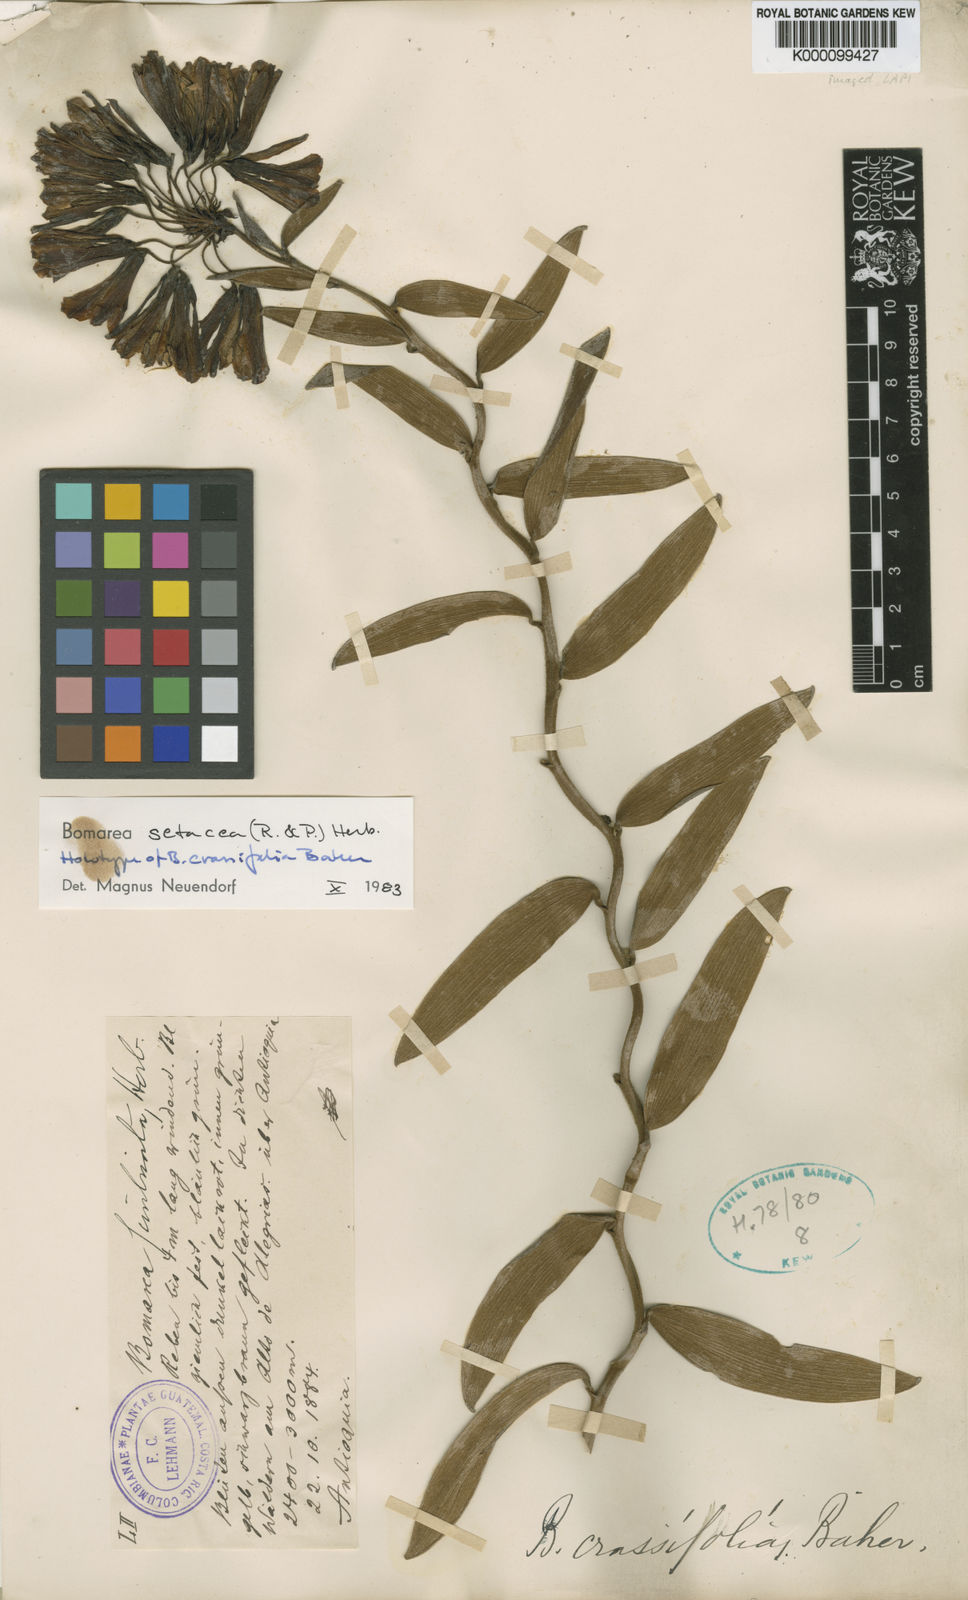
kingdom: Plantae
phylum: Tracheophyta
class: Liliopsida
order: Liliales
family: Alstroemeriaceae
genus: Bomarea
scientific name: Bomarea crassifolia
